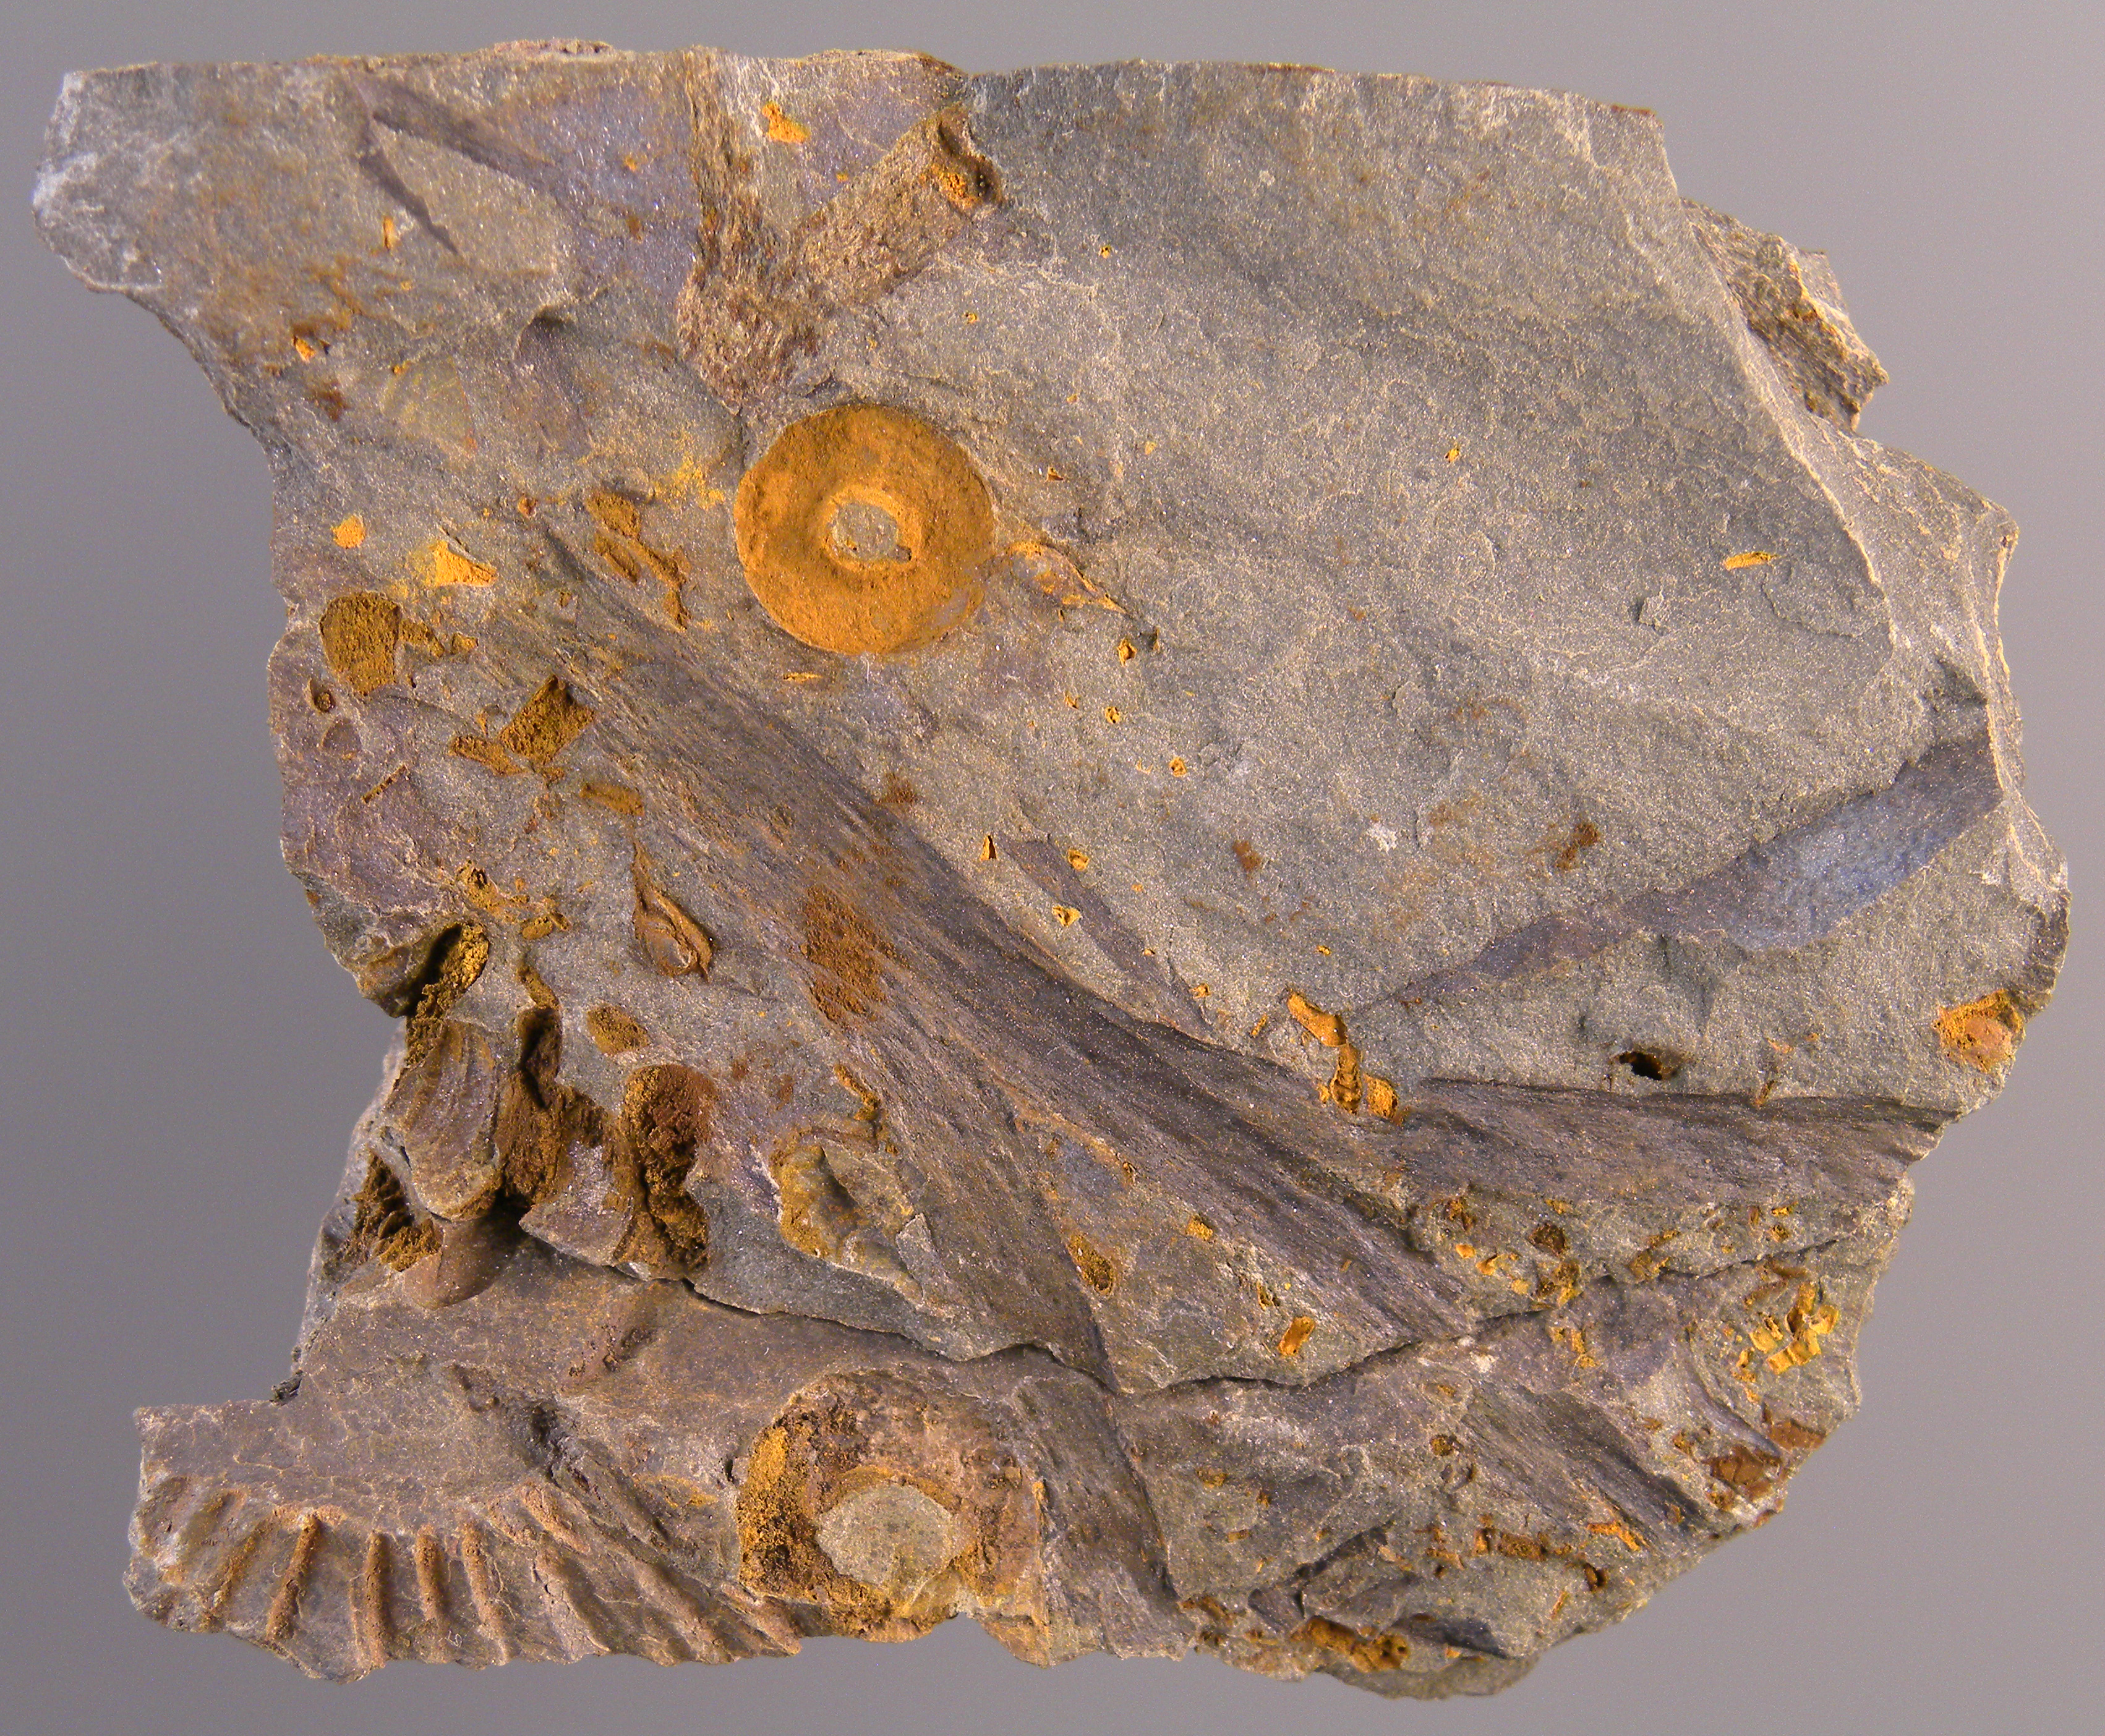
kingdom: Animalia
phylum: Echinodermata
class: Crinoidea
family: Rhodocrinitidae
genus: Acanthocrinus
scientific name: Acanthocrinus
